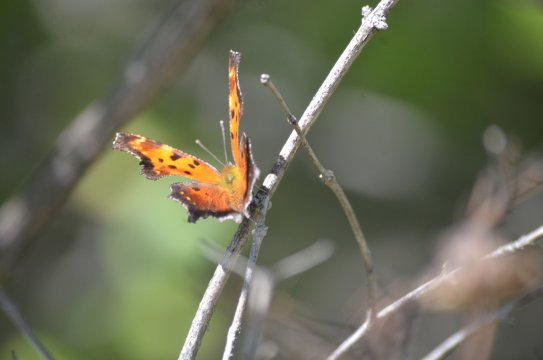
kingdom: Animalia
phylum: Arthropoda
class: Insecta
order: Lepidoptera
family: Nymphalidae
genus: Polygonia
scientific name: Polygonia progne
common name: Gray Comma
